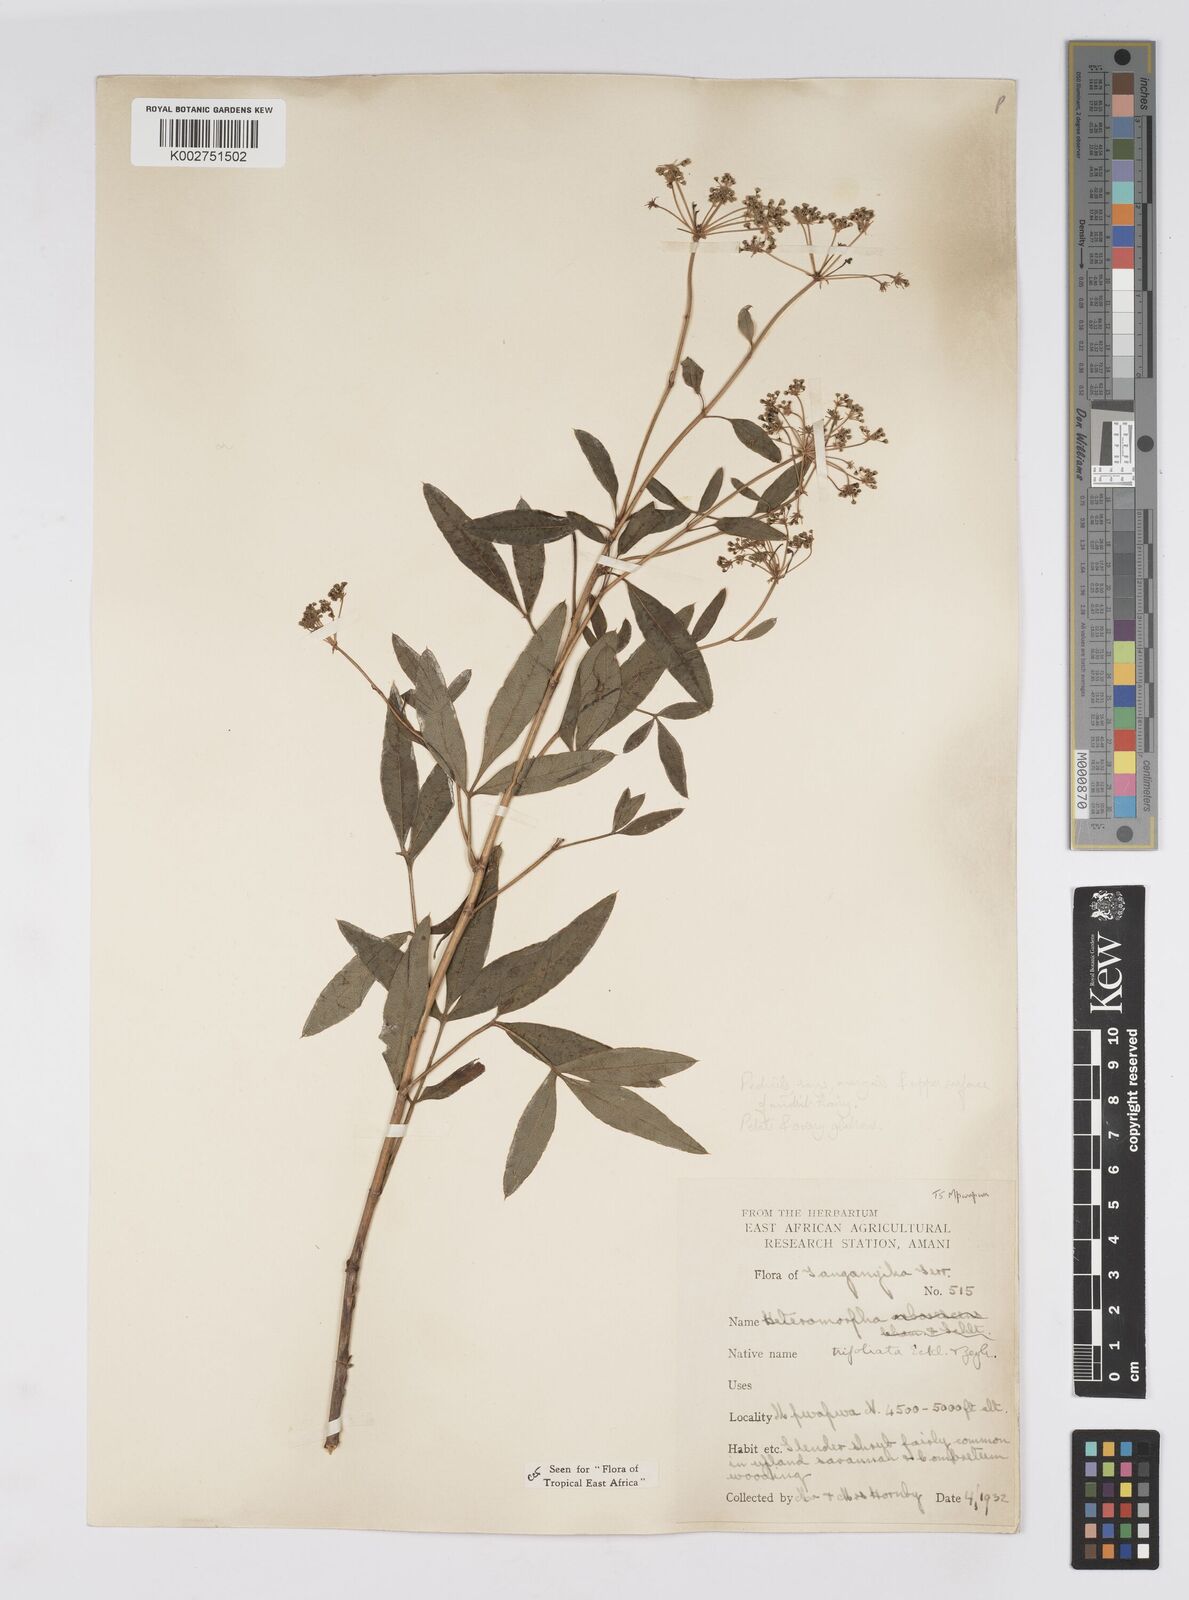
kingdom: Plantae
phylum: Tracheophyta
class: Magnoliopsida
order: Apiales
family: Apiaceae
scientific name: Apiaceae
